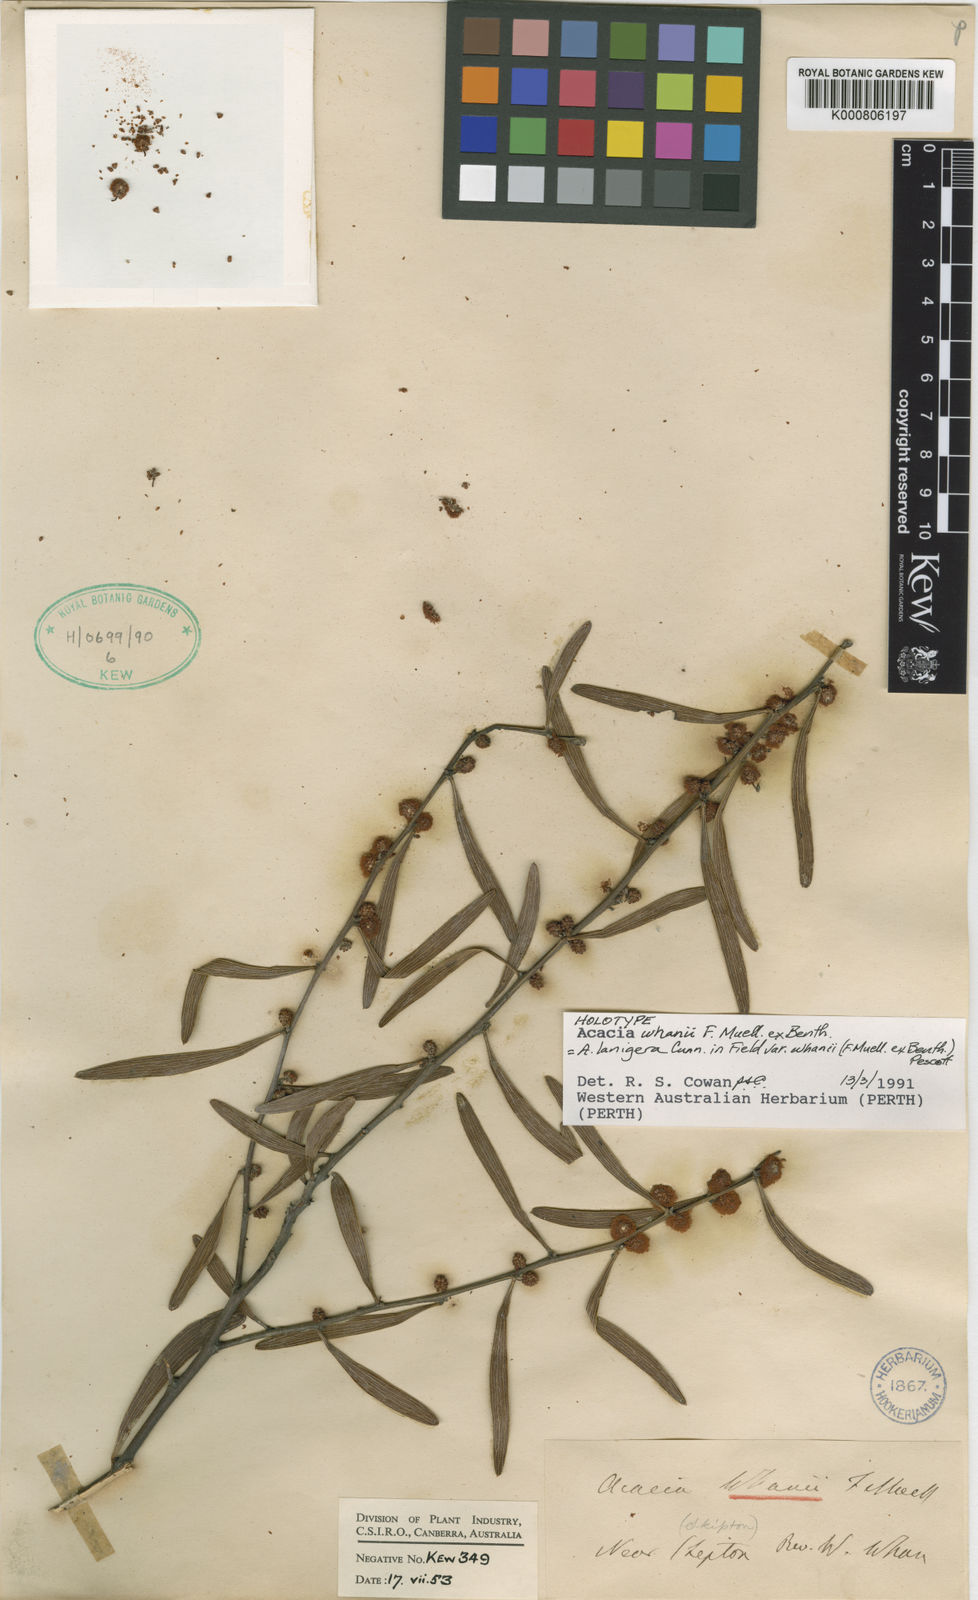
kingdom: Plantae
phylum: Tracheophyta
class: Magnoliopsida
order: Fabales
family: Fabaceae
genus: Acacia
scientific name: Acacia lanigera
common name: Hairy wattle
